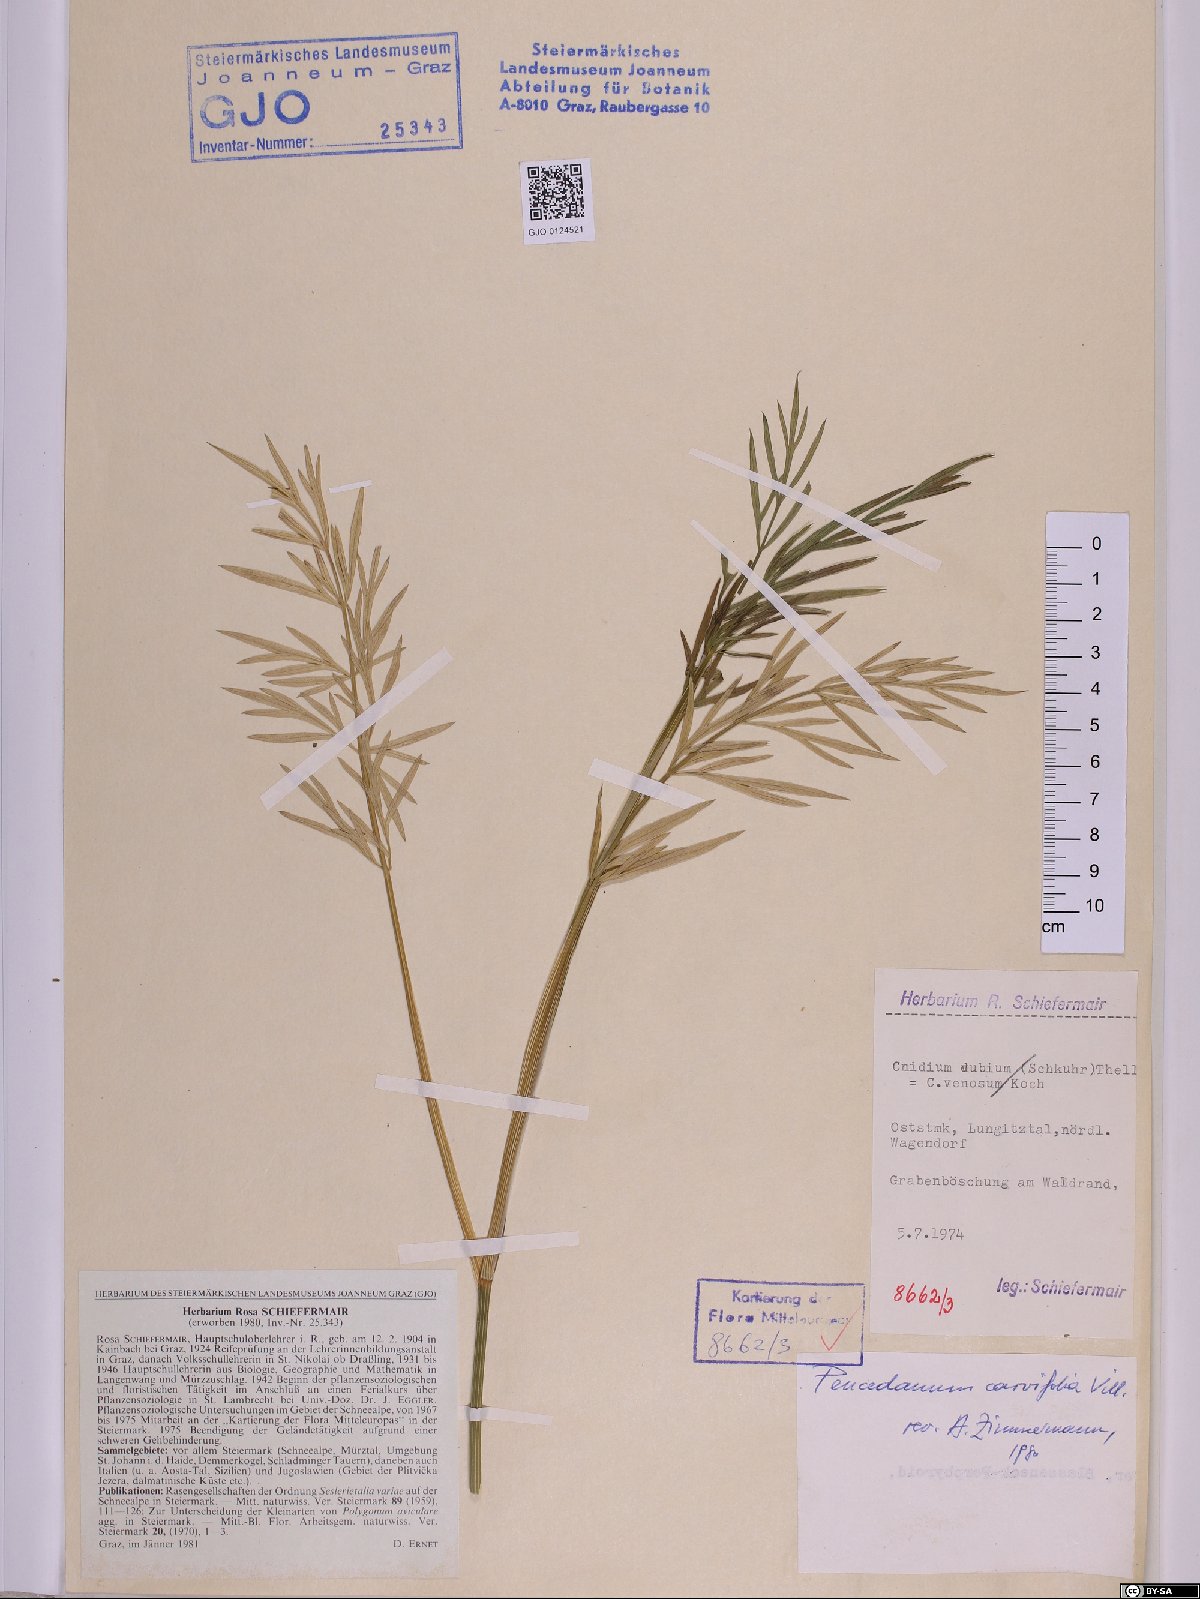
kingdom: Plantae
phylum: Tracheophyta
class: Magnoliopsida
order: Apiales
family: Apiaceae
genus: Dichoropetalum
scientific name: Dichoropetalum carvifolia
